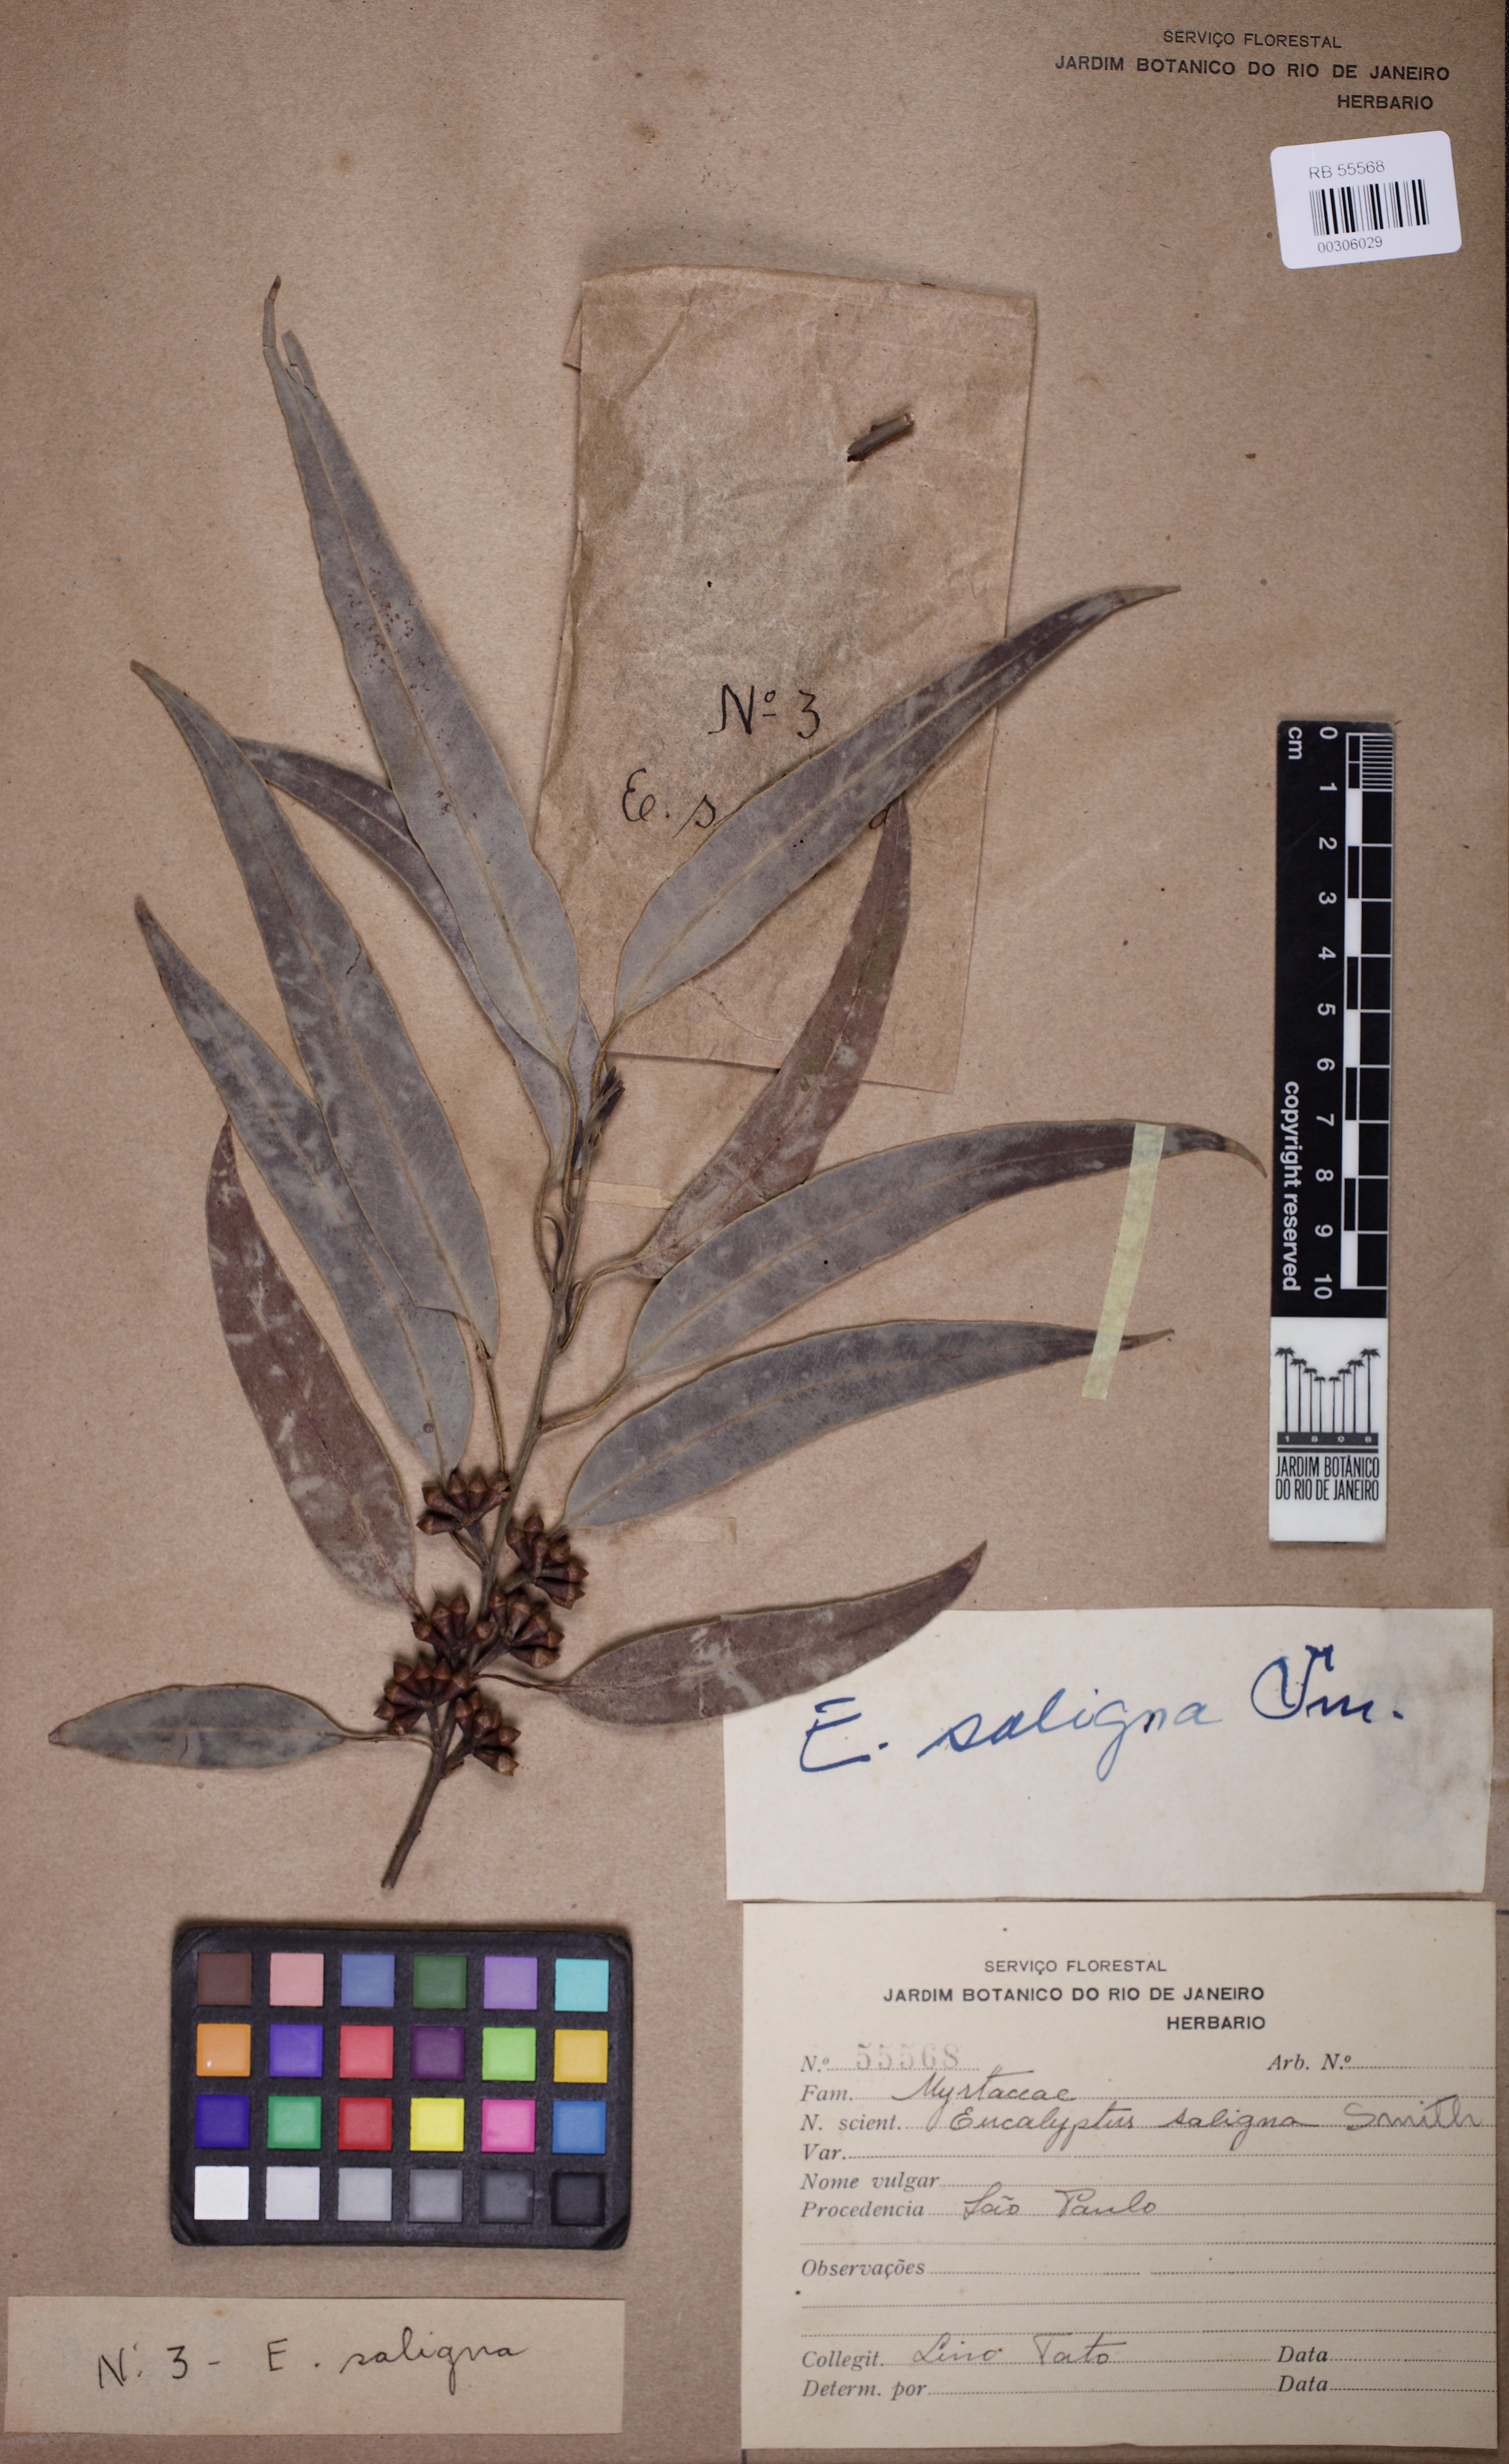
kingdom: Plantae
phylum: Tracheophyta
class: Magnoliopsida
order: Myrtales
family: Myrtaceae
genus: Eucalyptus
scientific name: Eucalyptus saligna
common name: Blue gum
